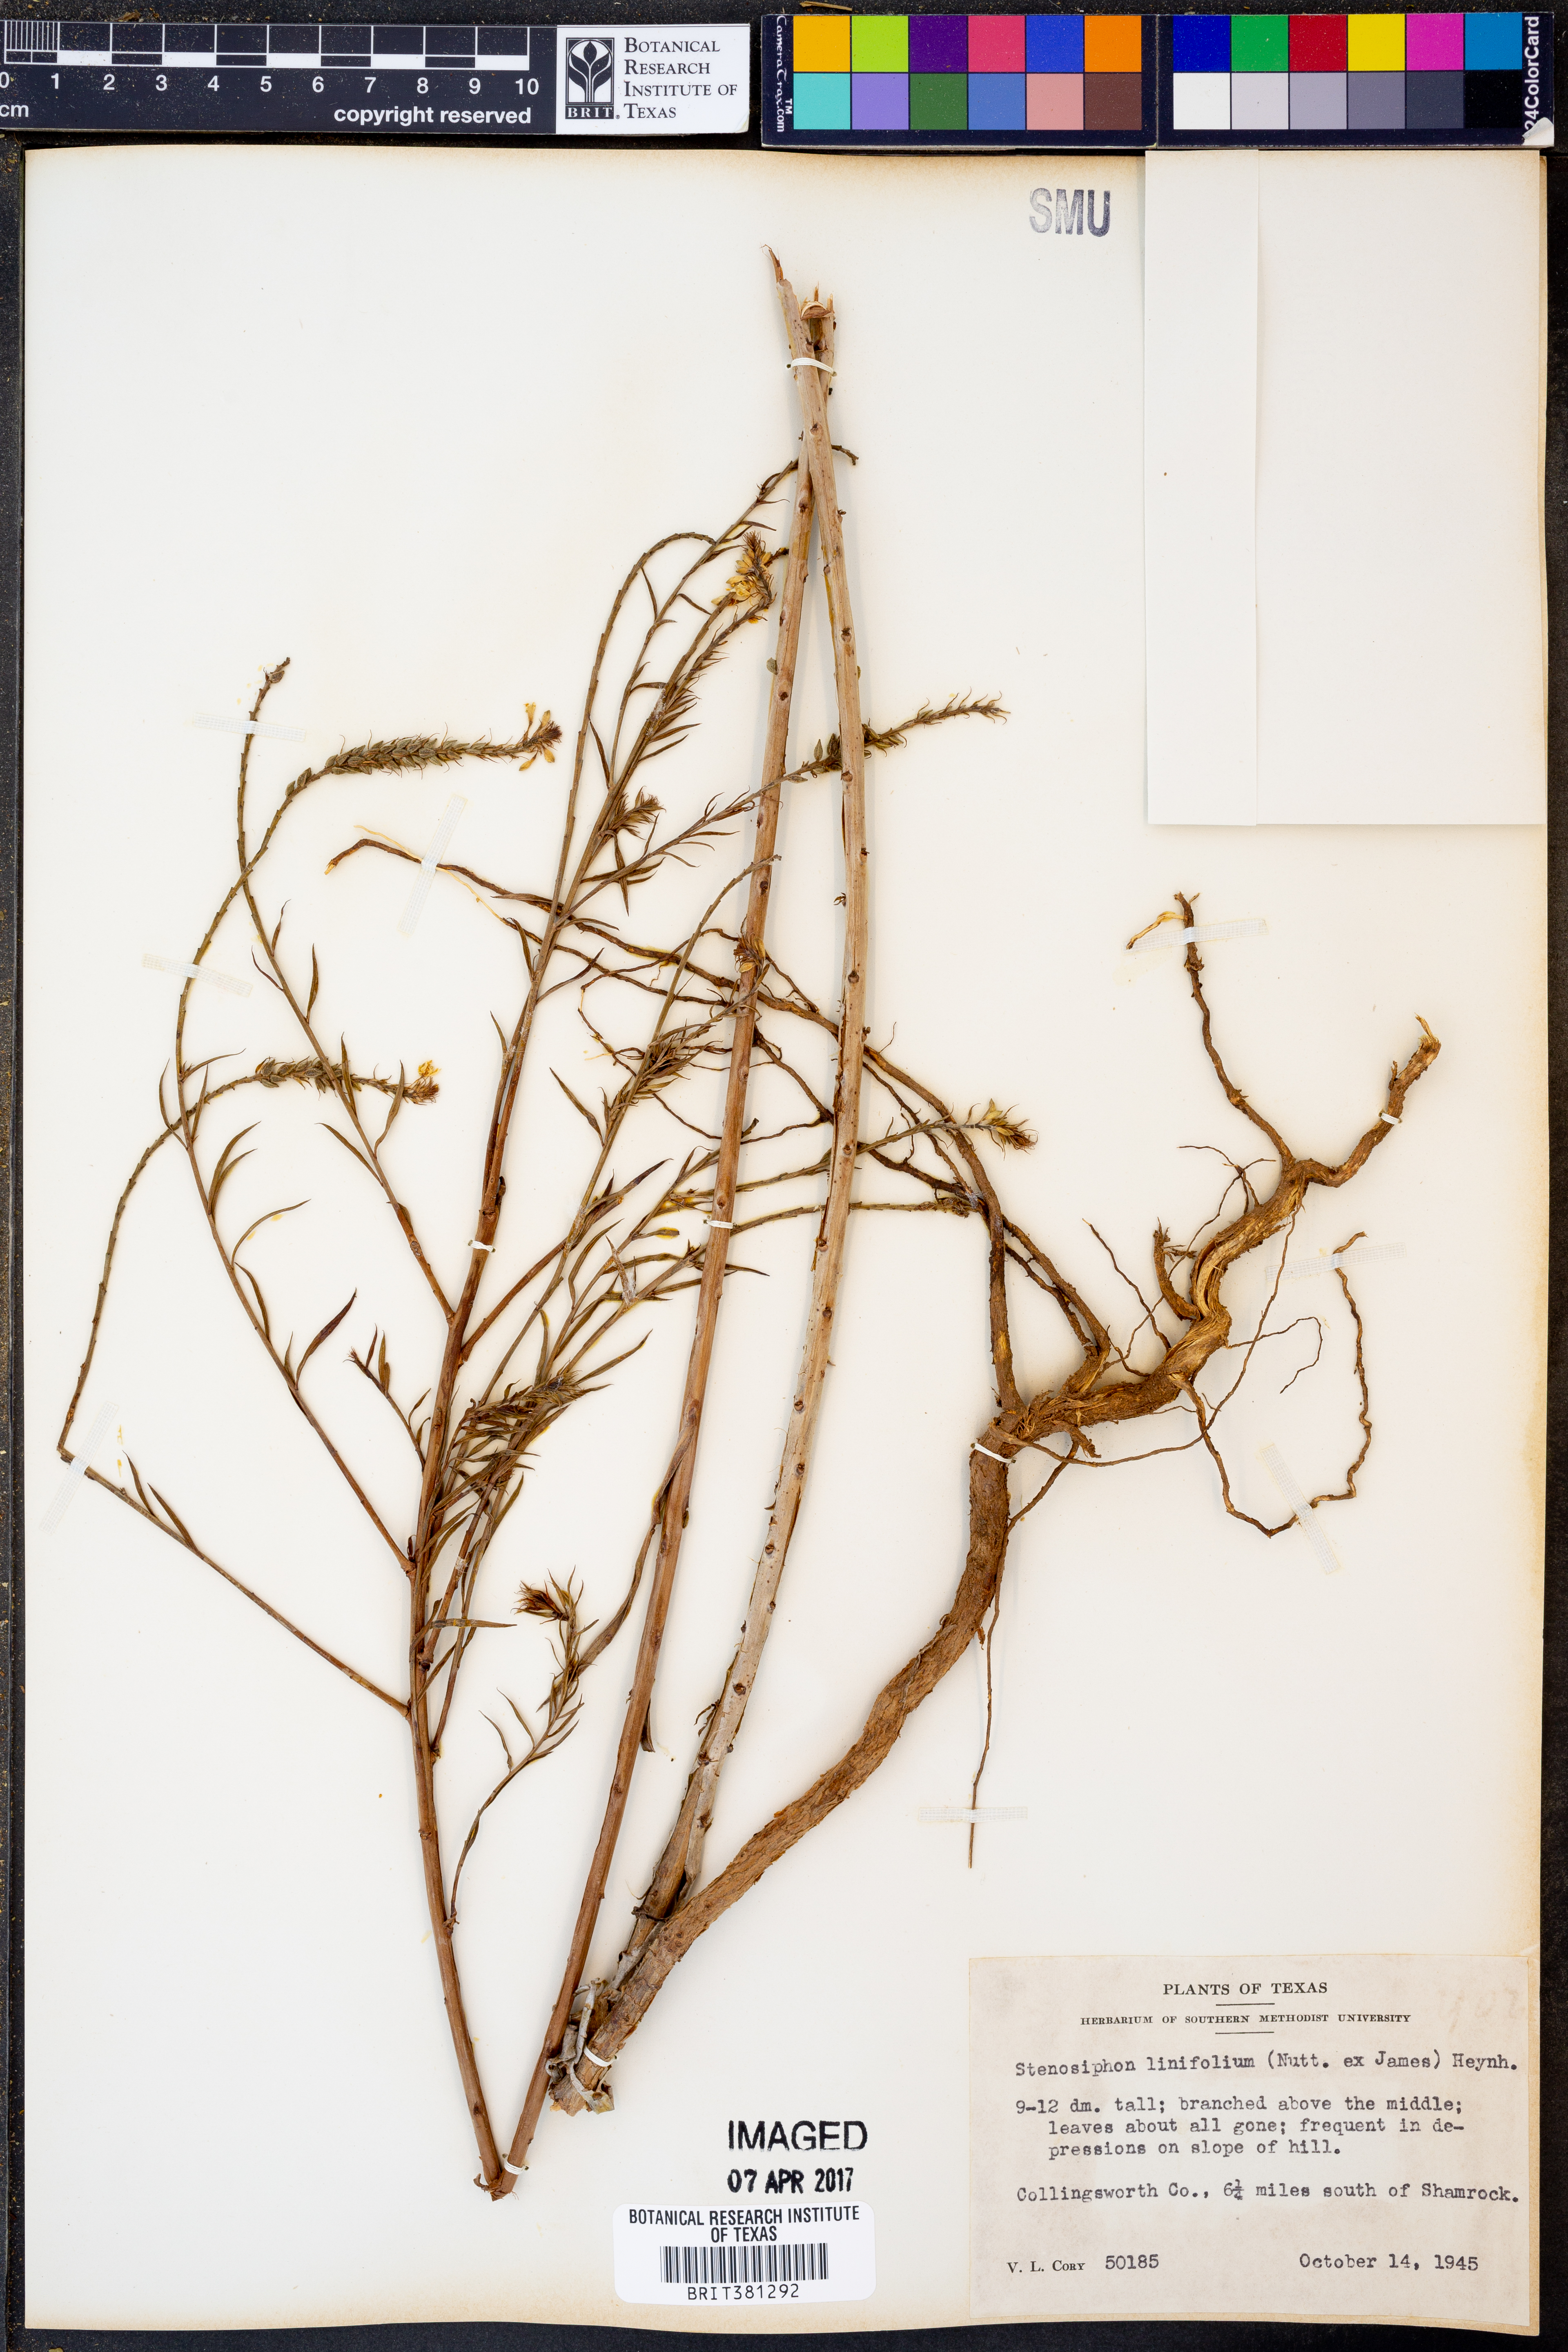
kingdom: Plantae
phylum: Tracheophyta
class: Magnoliopsida
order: Myrtales
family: Onagraceae
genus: Oenothera
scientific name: Oenothera glaucifolia
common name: False gaura
